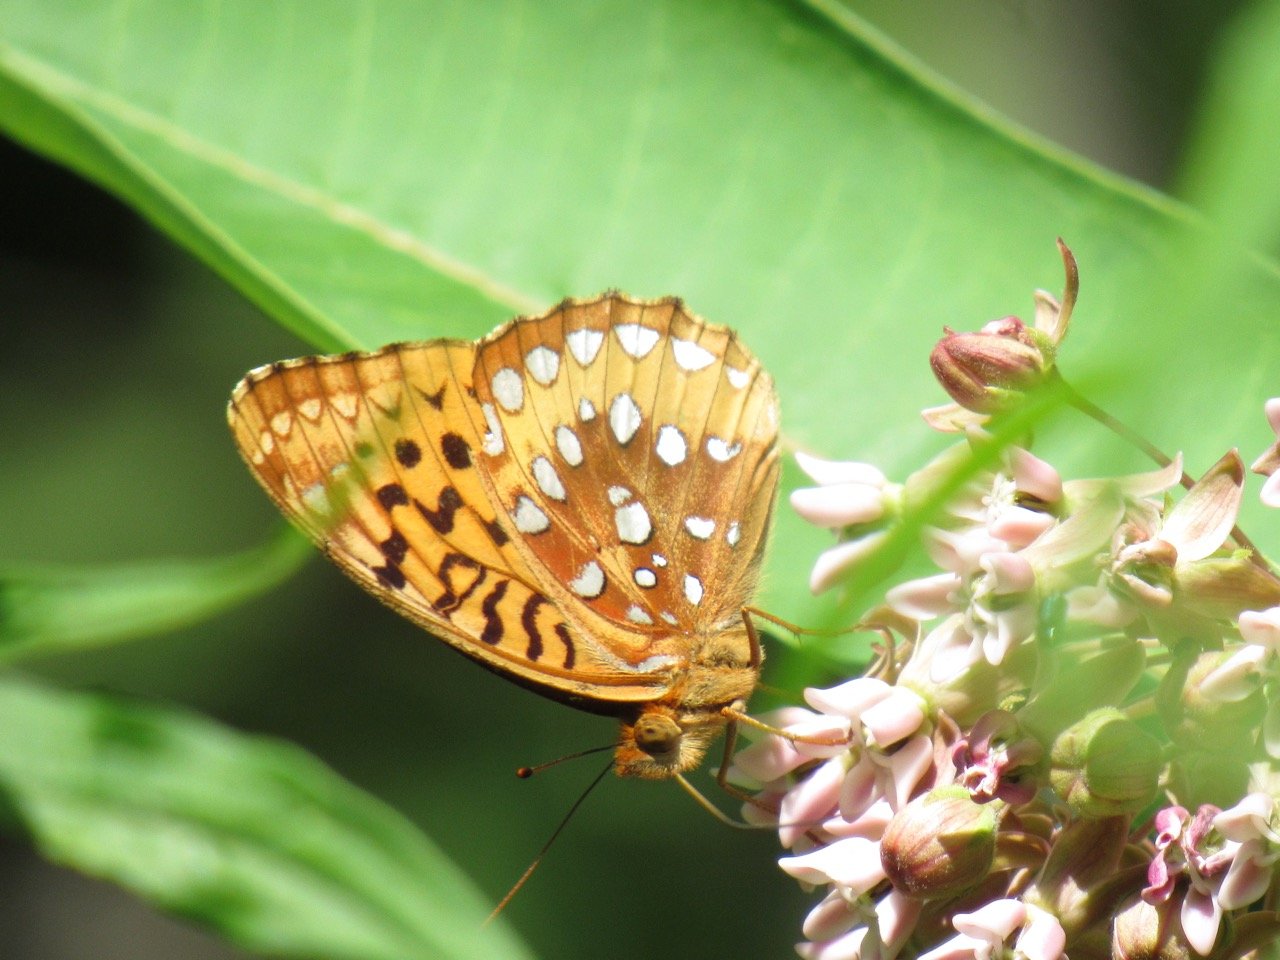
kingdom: Animalia
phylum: Arthropoda
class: Insecta
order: Lepidoptera
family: Nymphalidae
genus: Speyeria
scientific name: Speyeria cybele
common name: Great Spangled Fritillary
